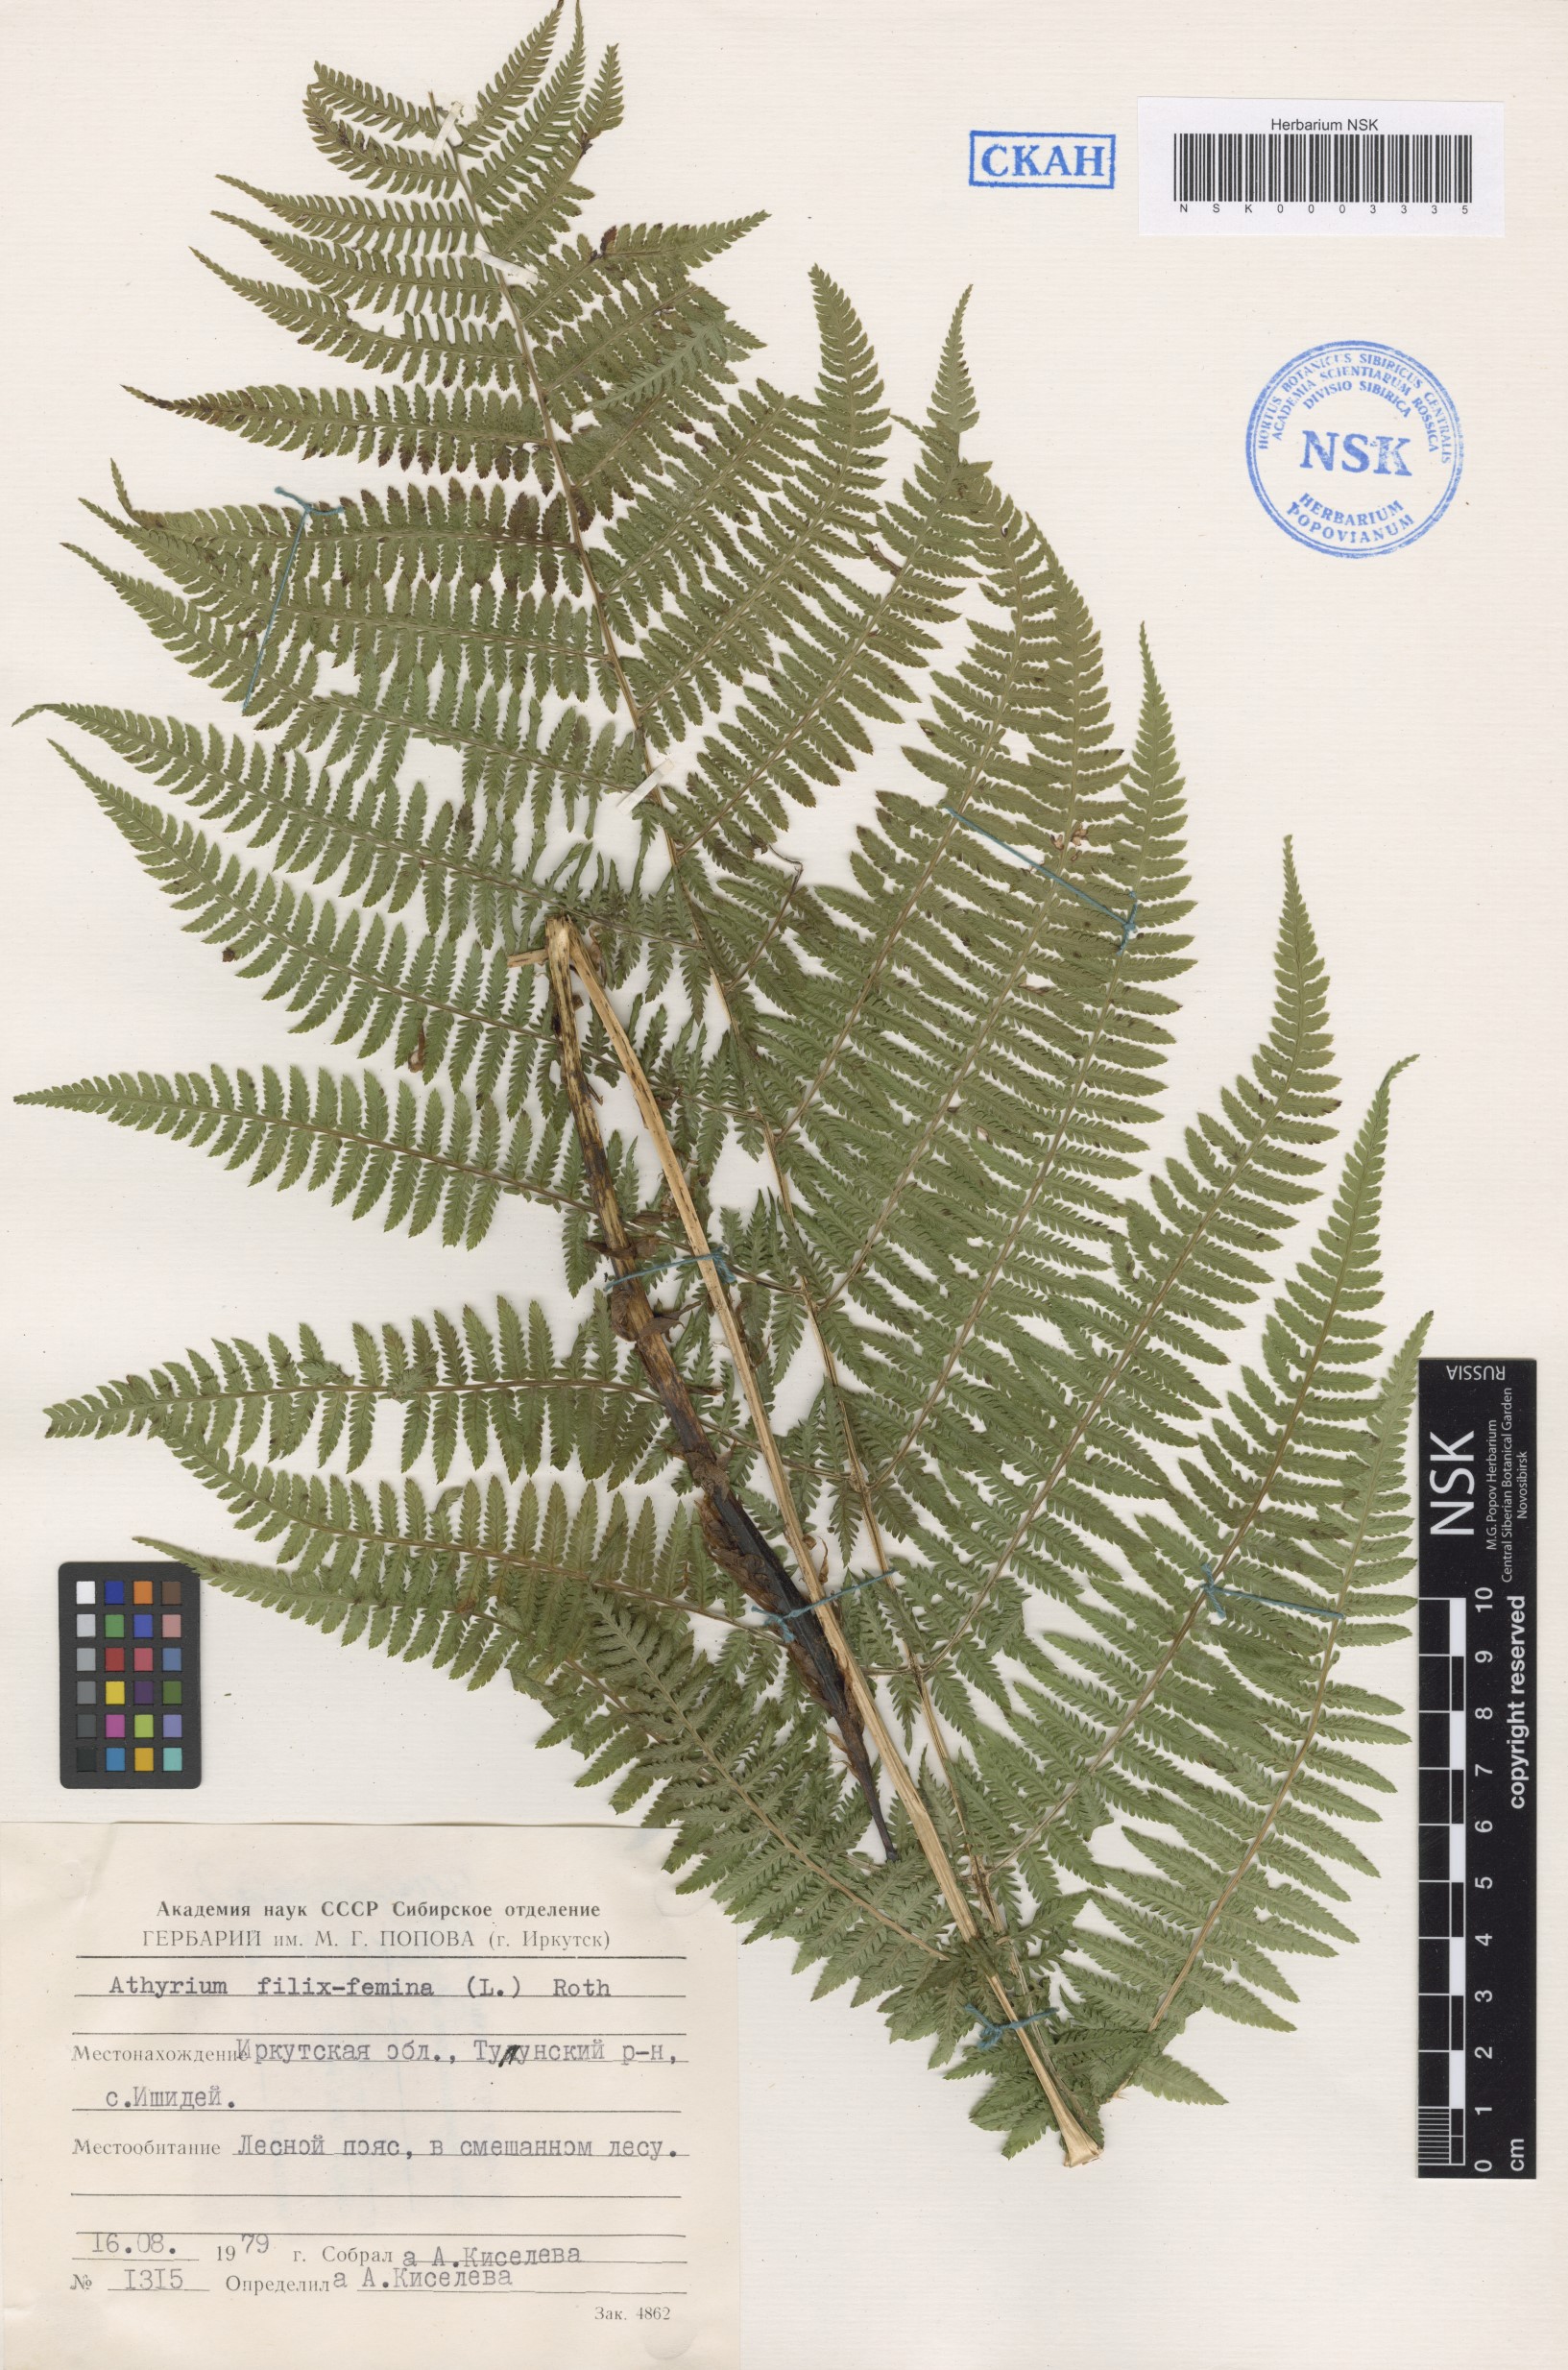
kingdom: Plantae
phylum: Tracheophyta
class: Polypodiopsida
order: Polypodiales
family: Athyriaceae
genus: Athyrium
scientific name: Athyrium filix-femina
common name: Lady fern
